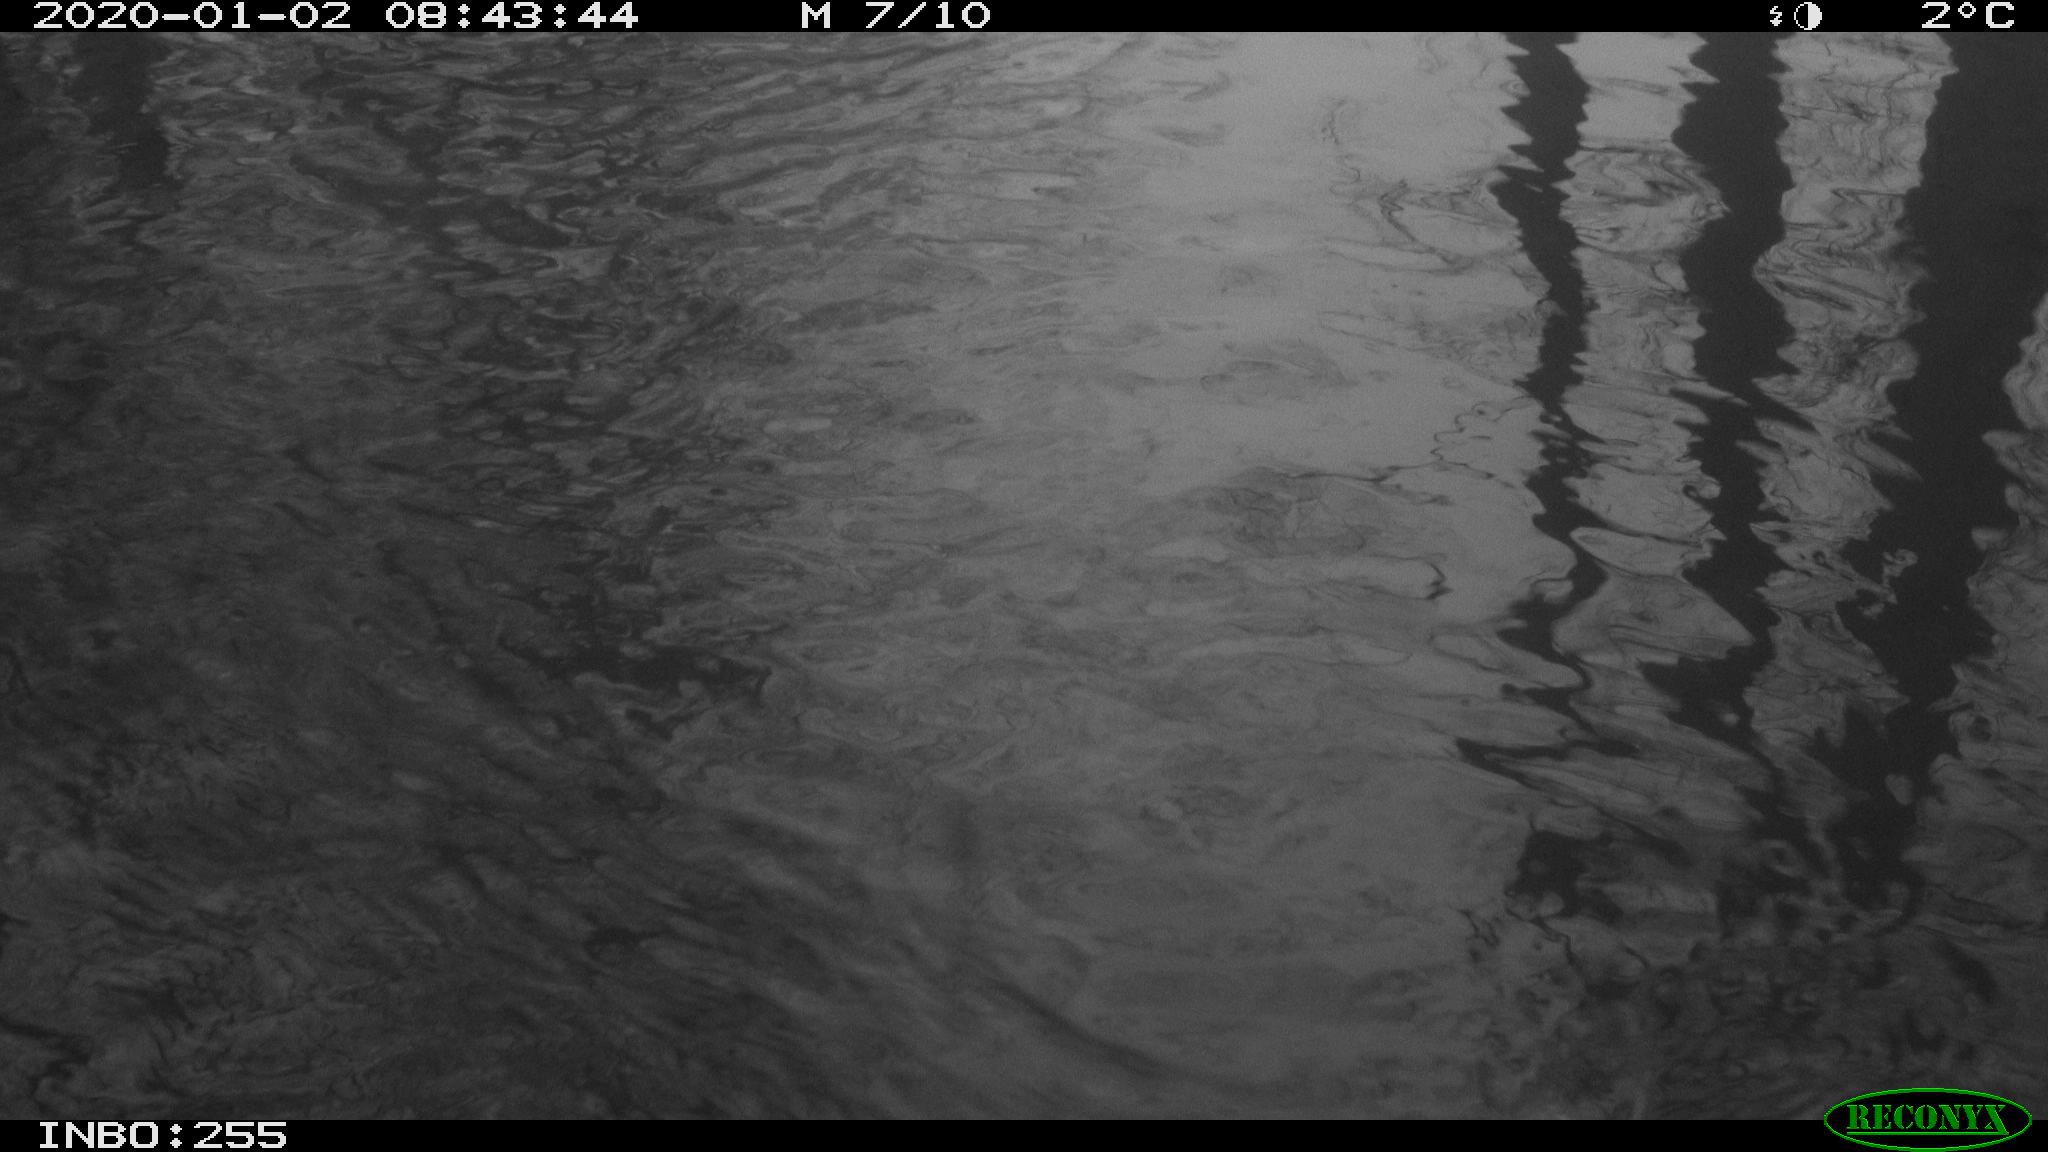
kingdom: Animalia
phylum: Chordata
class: Aves
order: Gruiformes
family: Rallidae
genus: Fulica
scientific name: Fulica atra
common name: Eurasian coot
